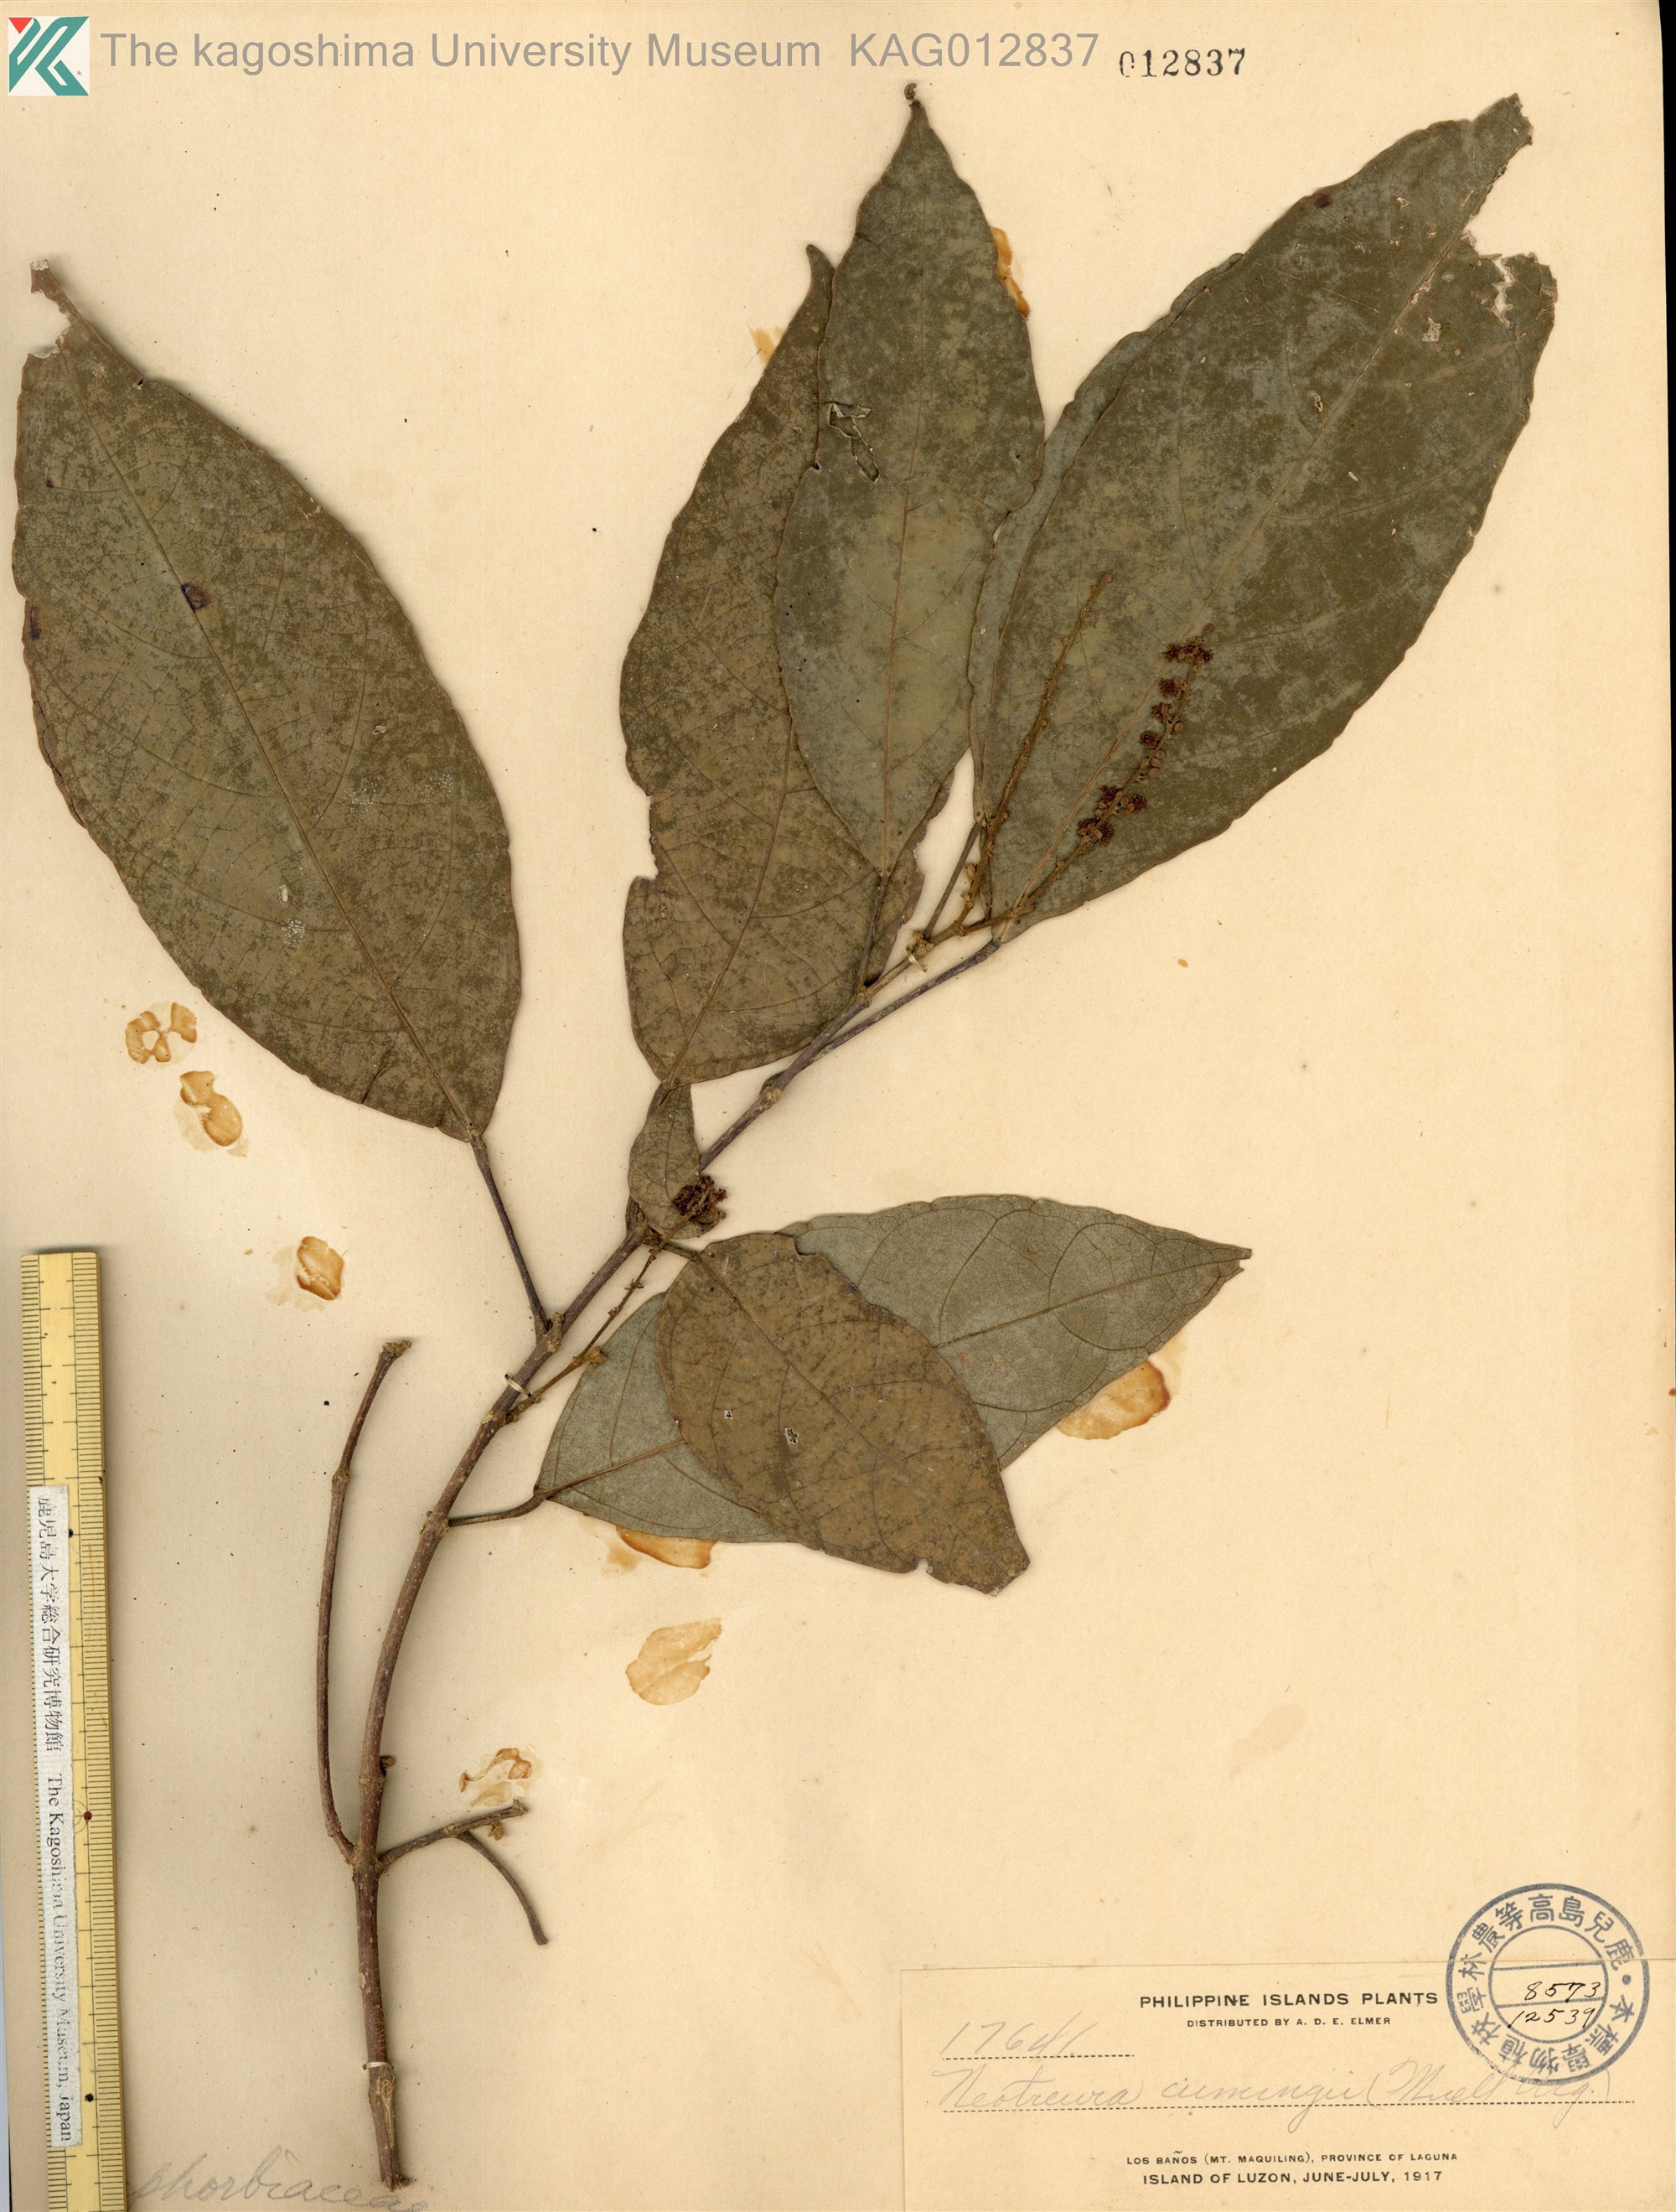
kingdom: Plantae
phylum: Tracheophyta
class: Magnoliopsida
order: Malpighiales
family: Euphorbiaceae
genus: Mallotus
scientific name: Mallotus cumingii
